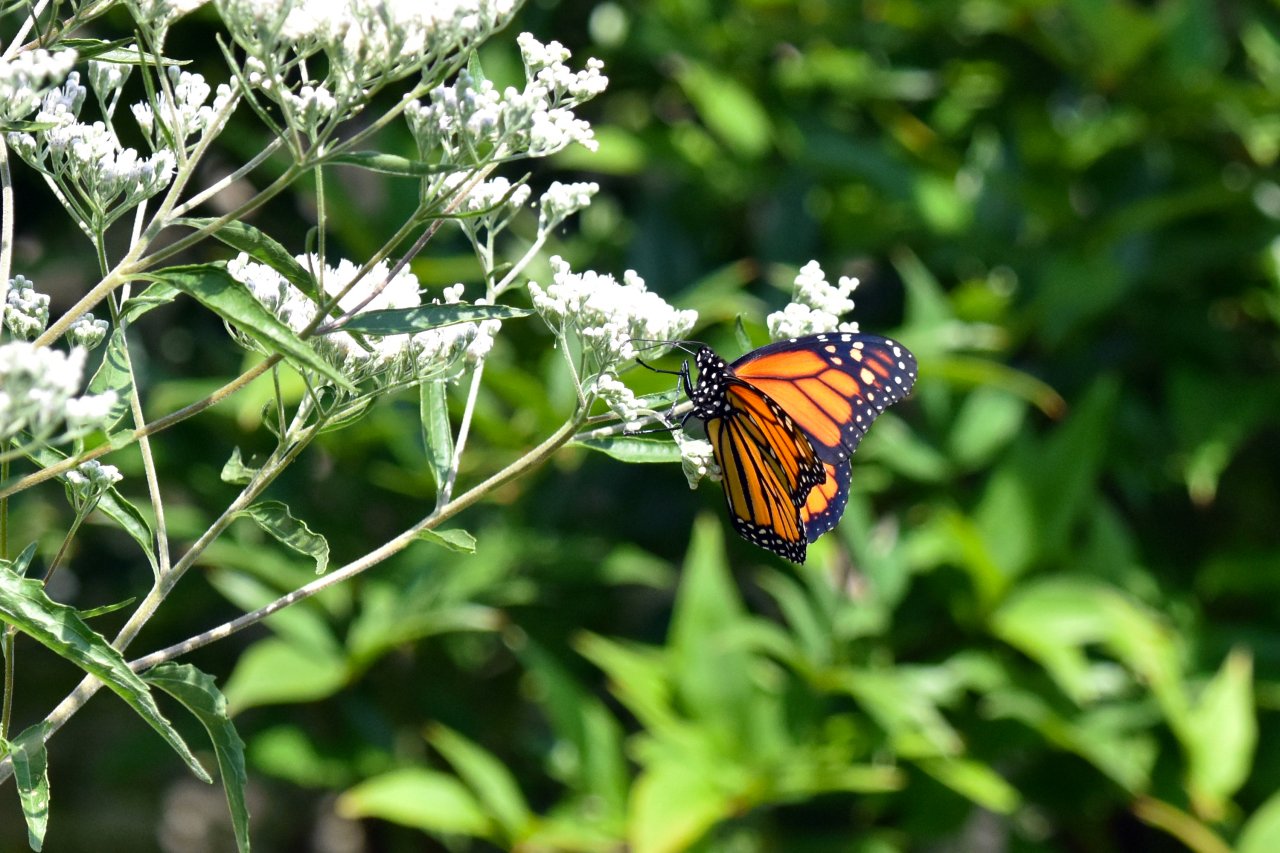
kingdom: Animalia
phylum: Arthropoda
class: Insecta
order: Lepidoptera
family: Nymphalidae
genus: Danaus
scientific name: Danaus plexippus
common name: Monarch
